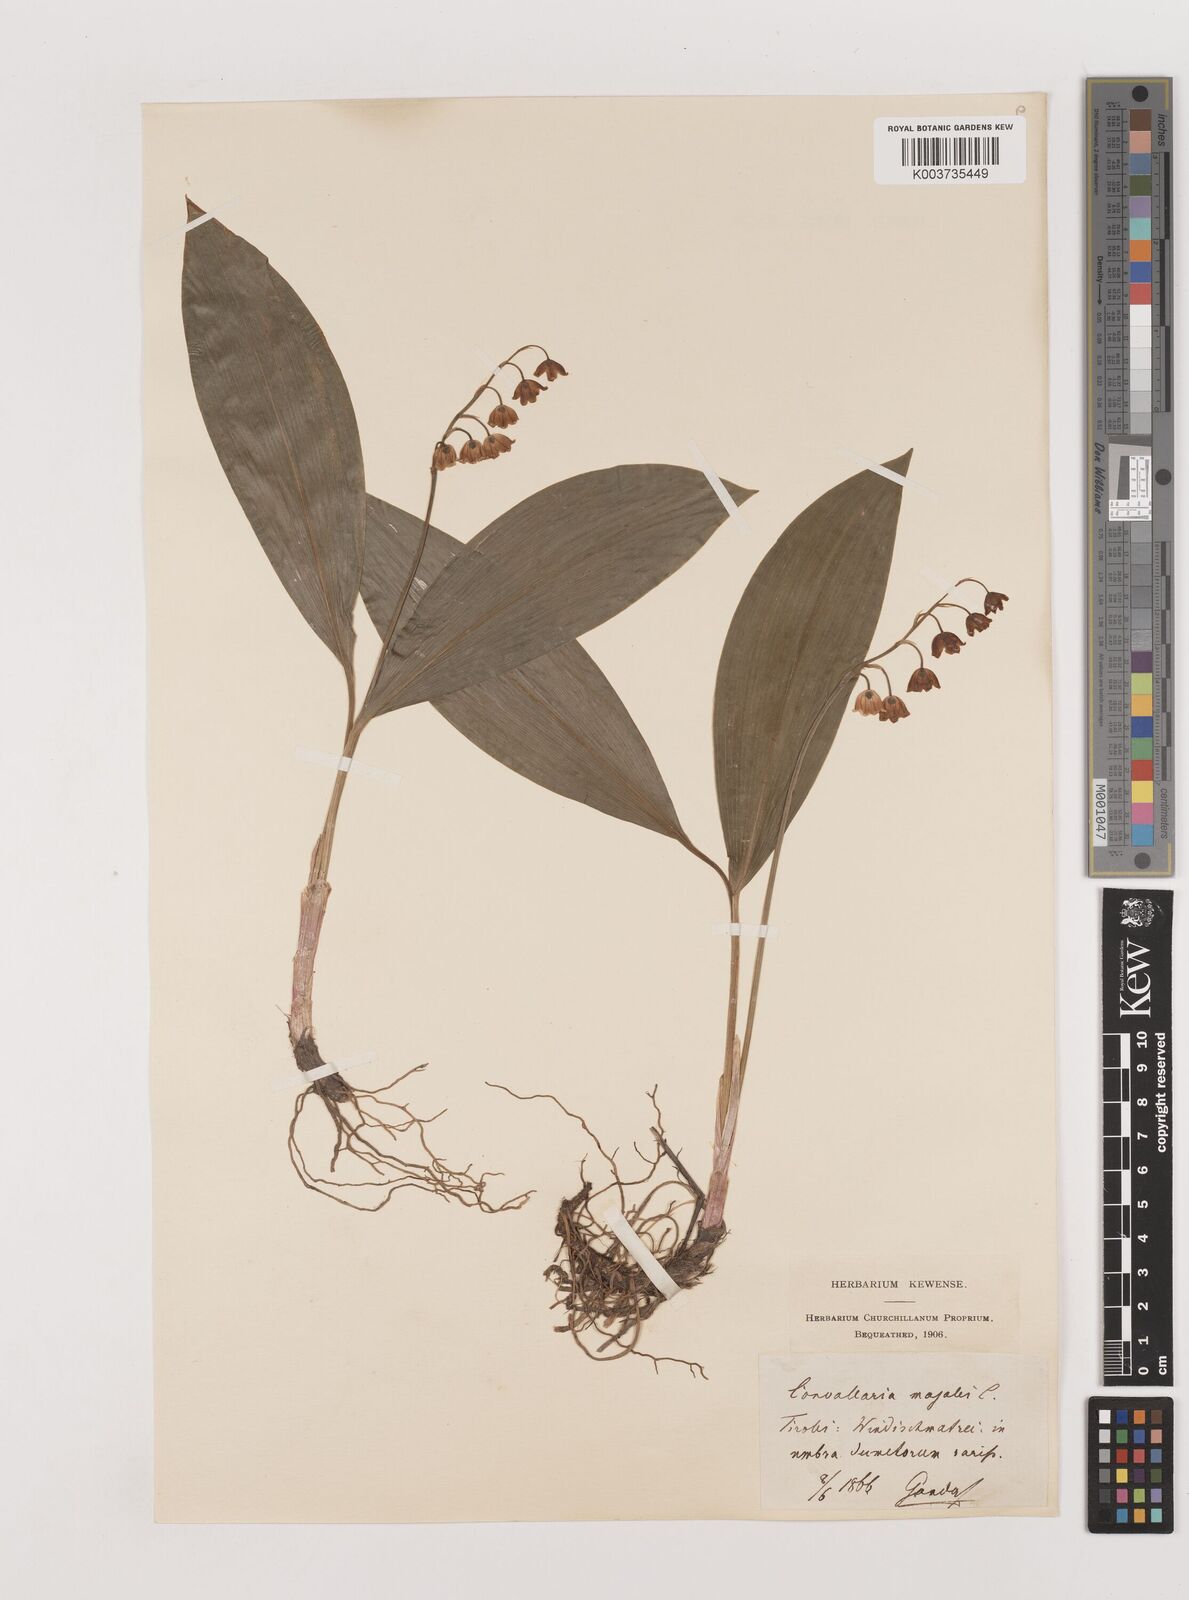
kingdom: Plantae
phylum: Tracheophyta
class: Liliopsida
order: Asparagales
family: Asparagaceae
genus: Convallaria
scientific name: Convallaria majalis
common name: Lily-of-the-valley
